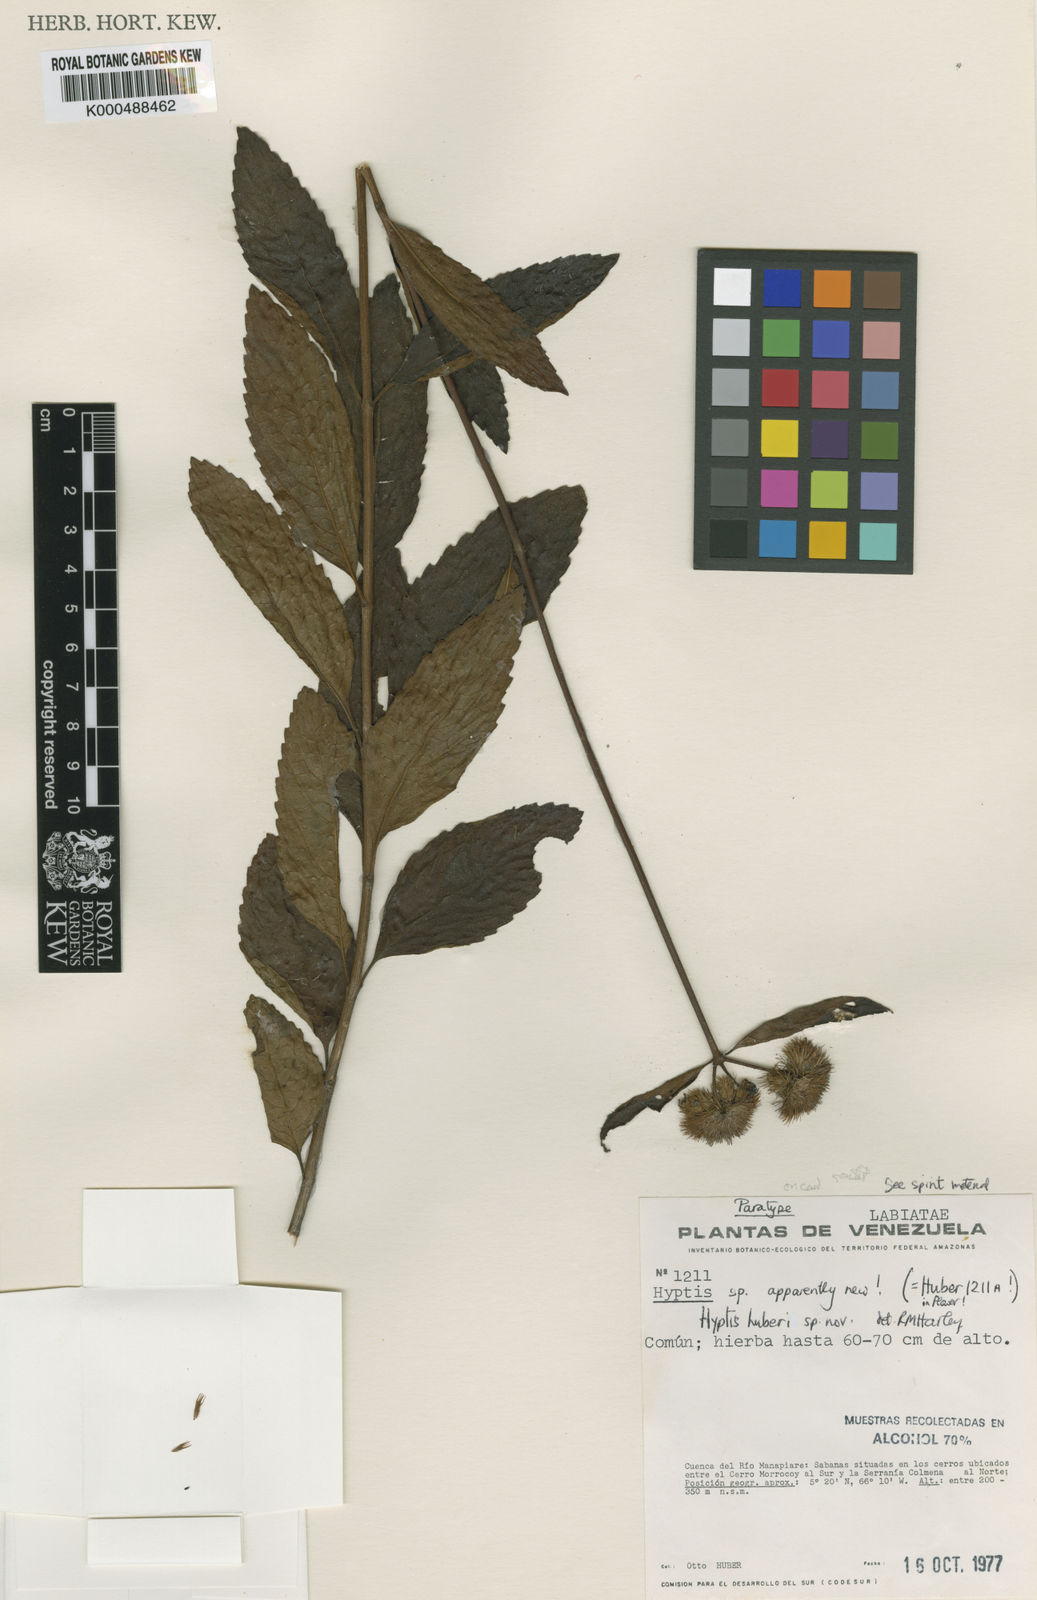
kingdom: Plantae
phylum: Tracheophyta
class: Magnoliopsida
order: Lamiales
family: Lamiaceae
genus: Hyptis
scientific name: Hyptis huberi
